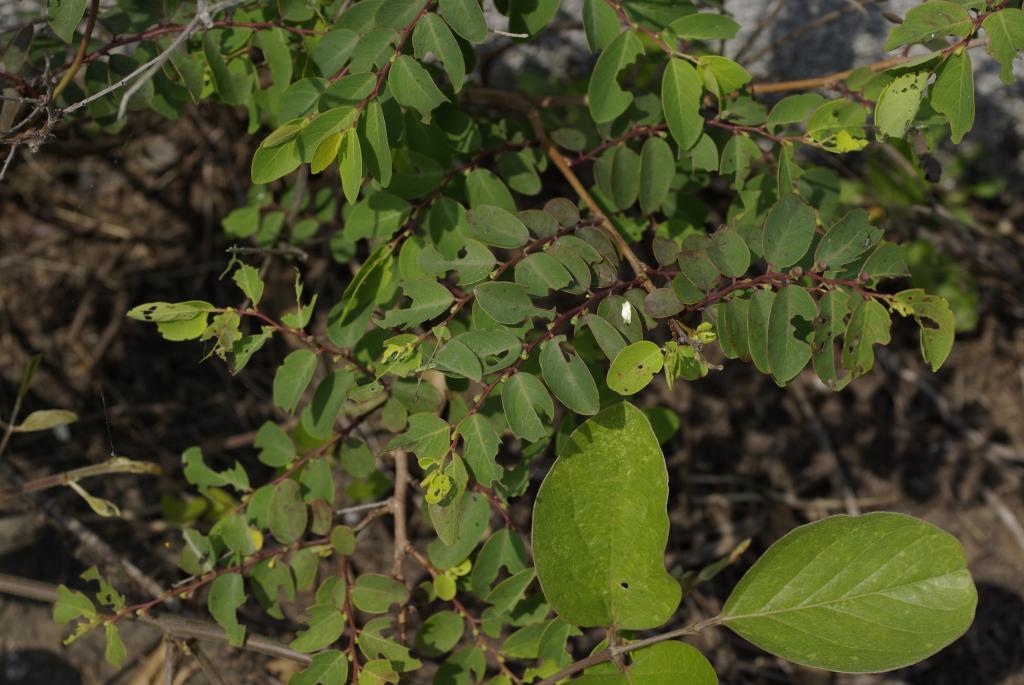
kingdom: Plantae
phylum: Tracheophyta
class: Magnoliopsida
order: Malpighiales
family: Phyllanthaceae
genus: Breynia
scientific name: Breynia officinalis
